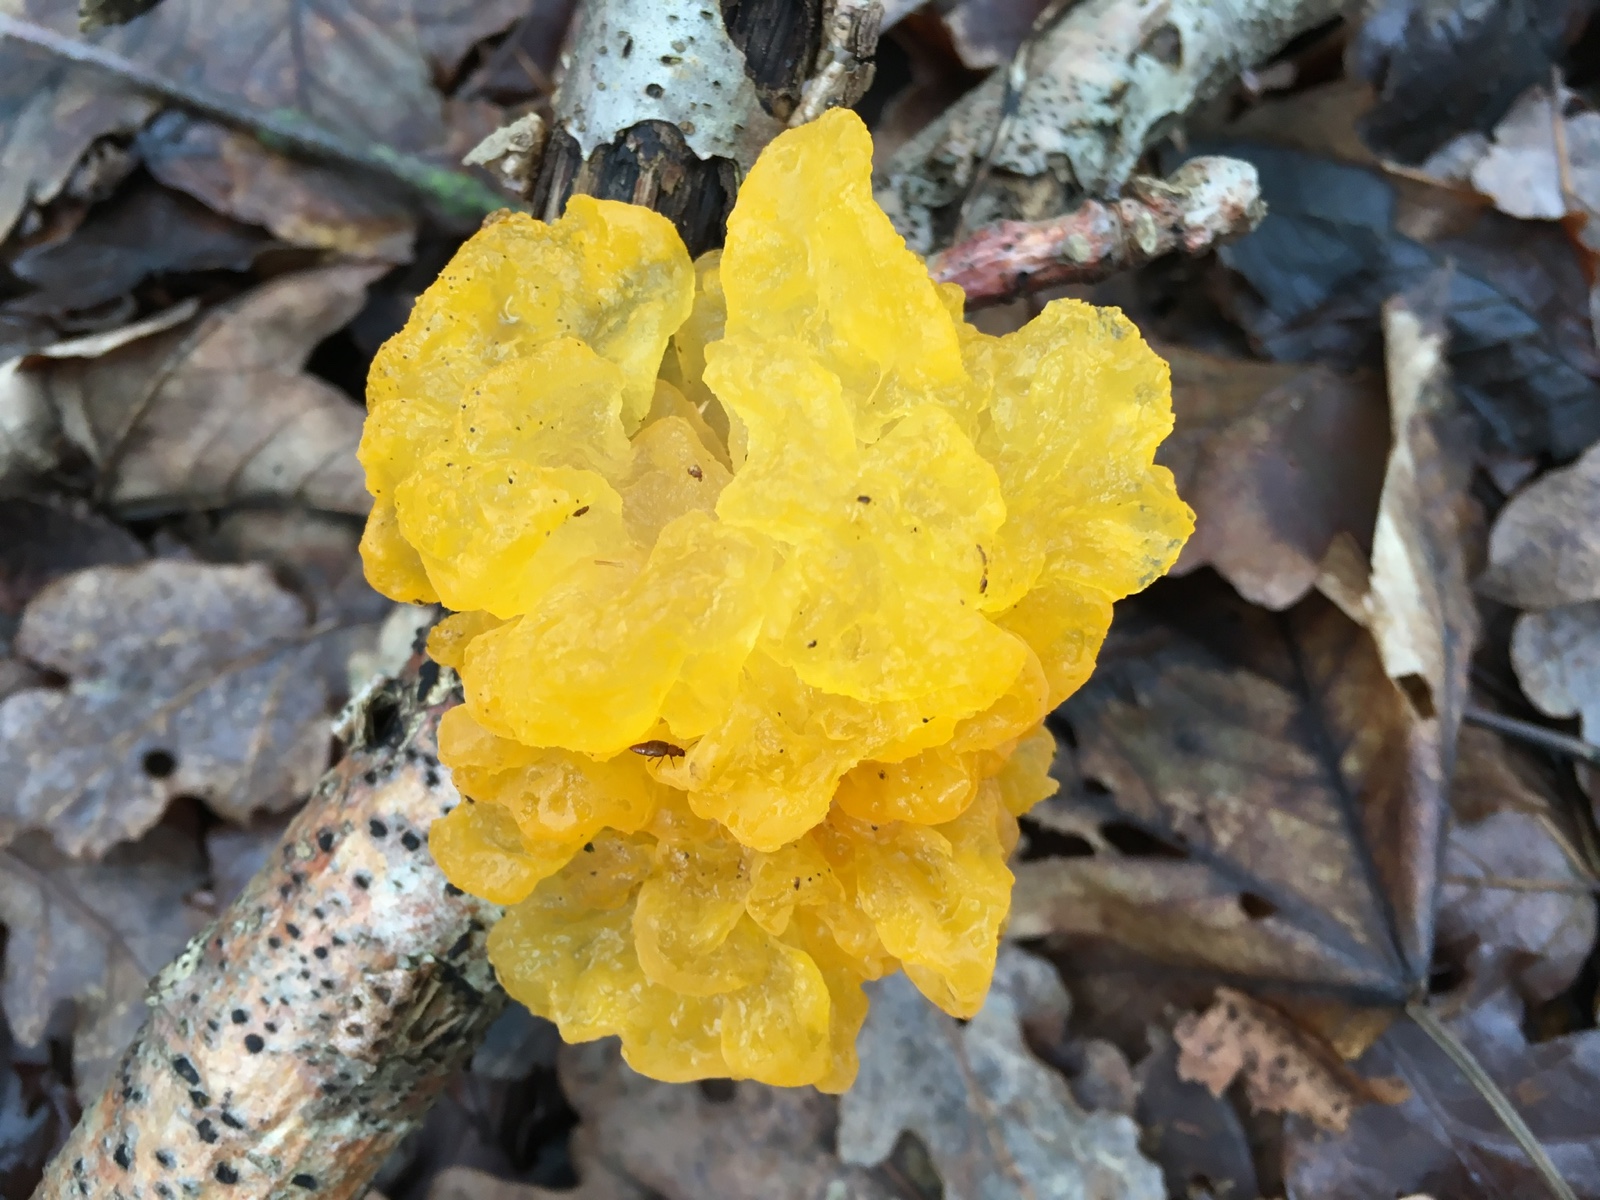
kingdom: Fungi
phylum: Basidiomycota
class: Tremellomycetes
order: Tremellales
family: Tremellaceae
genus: Tremella
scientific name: Tremella mesenterica
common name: gul bævresvamp
